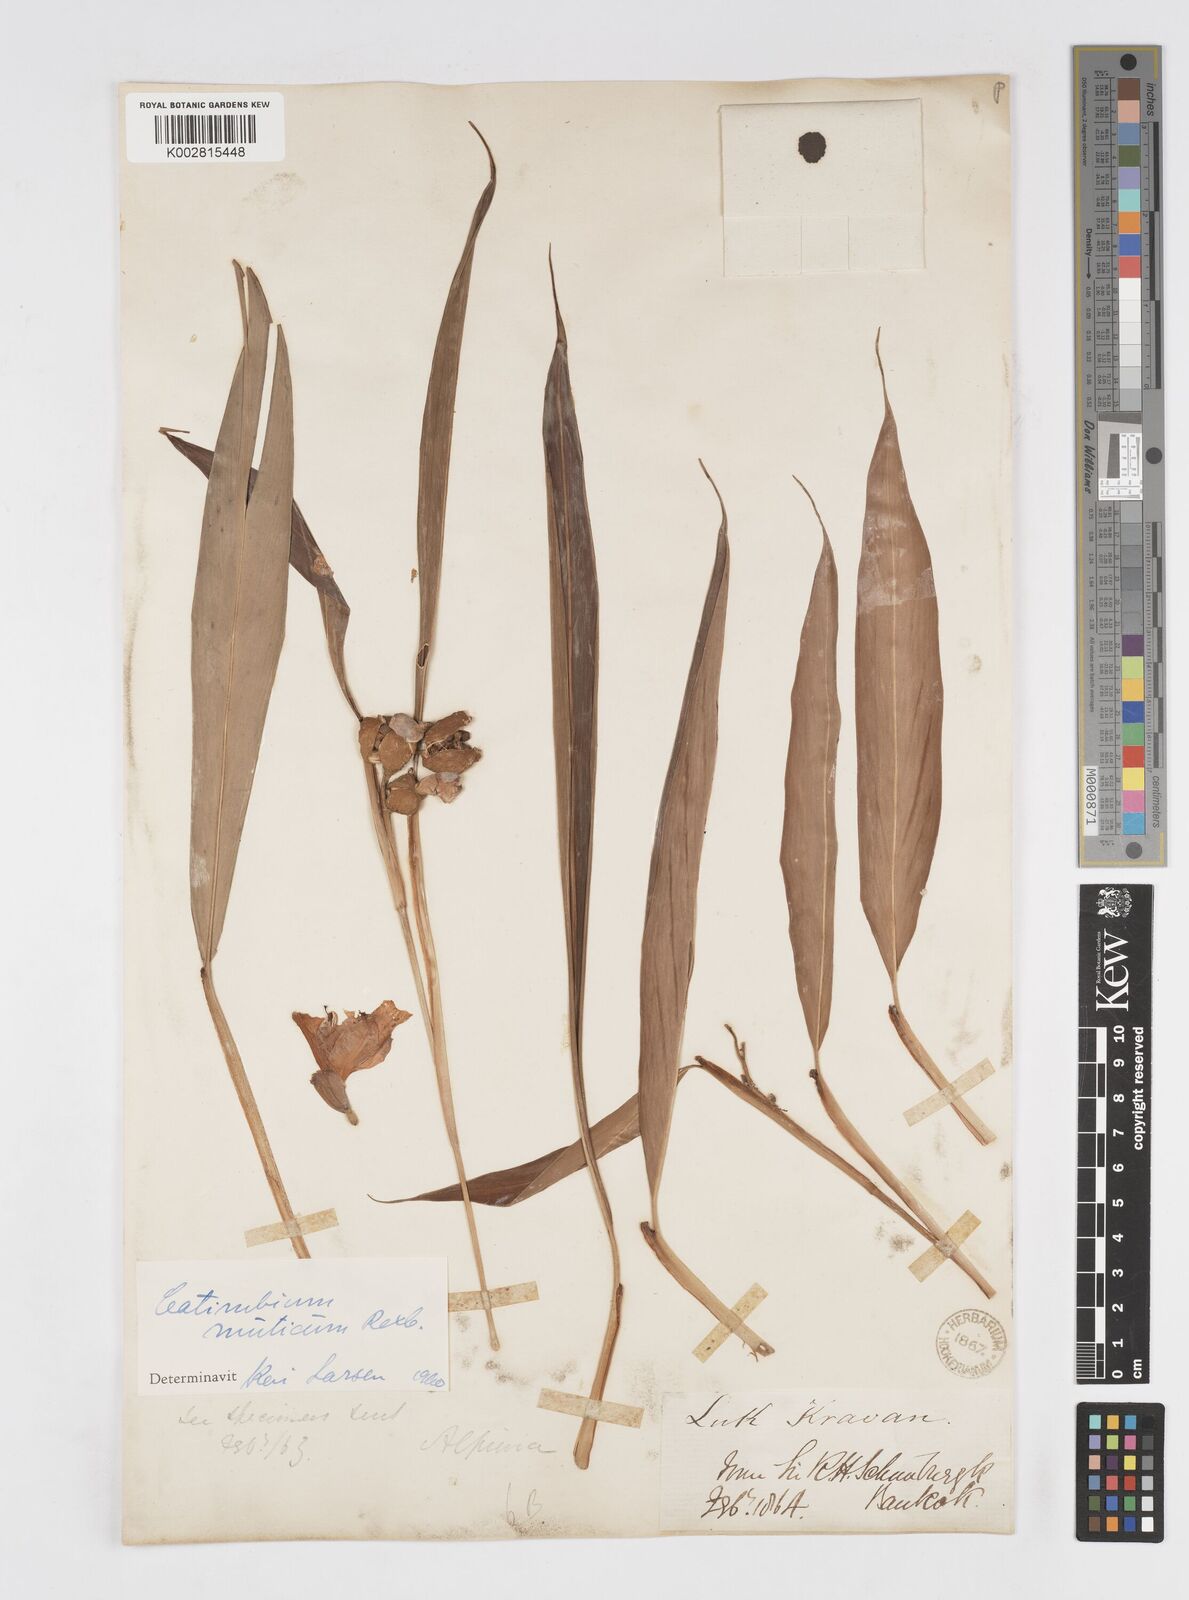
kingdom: Plantae
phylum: Tracheophyta
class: Liliopsida
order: Zingiberales
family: Zingiberaceae
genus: Alpinia
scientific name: Alpinia mutica
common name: Small shell ginger
